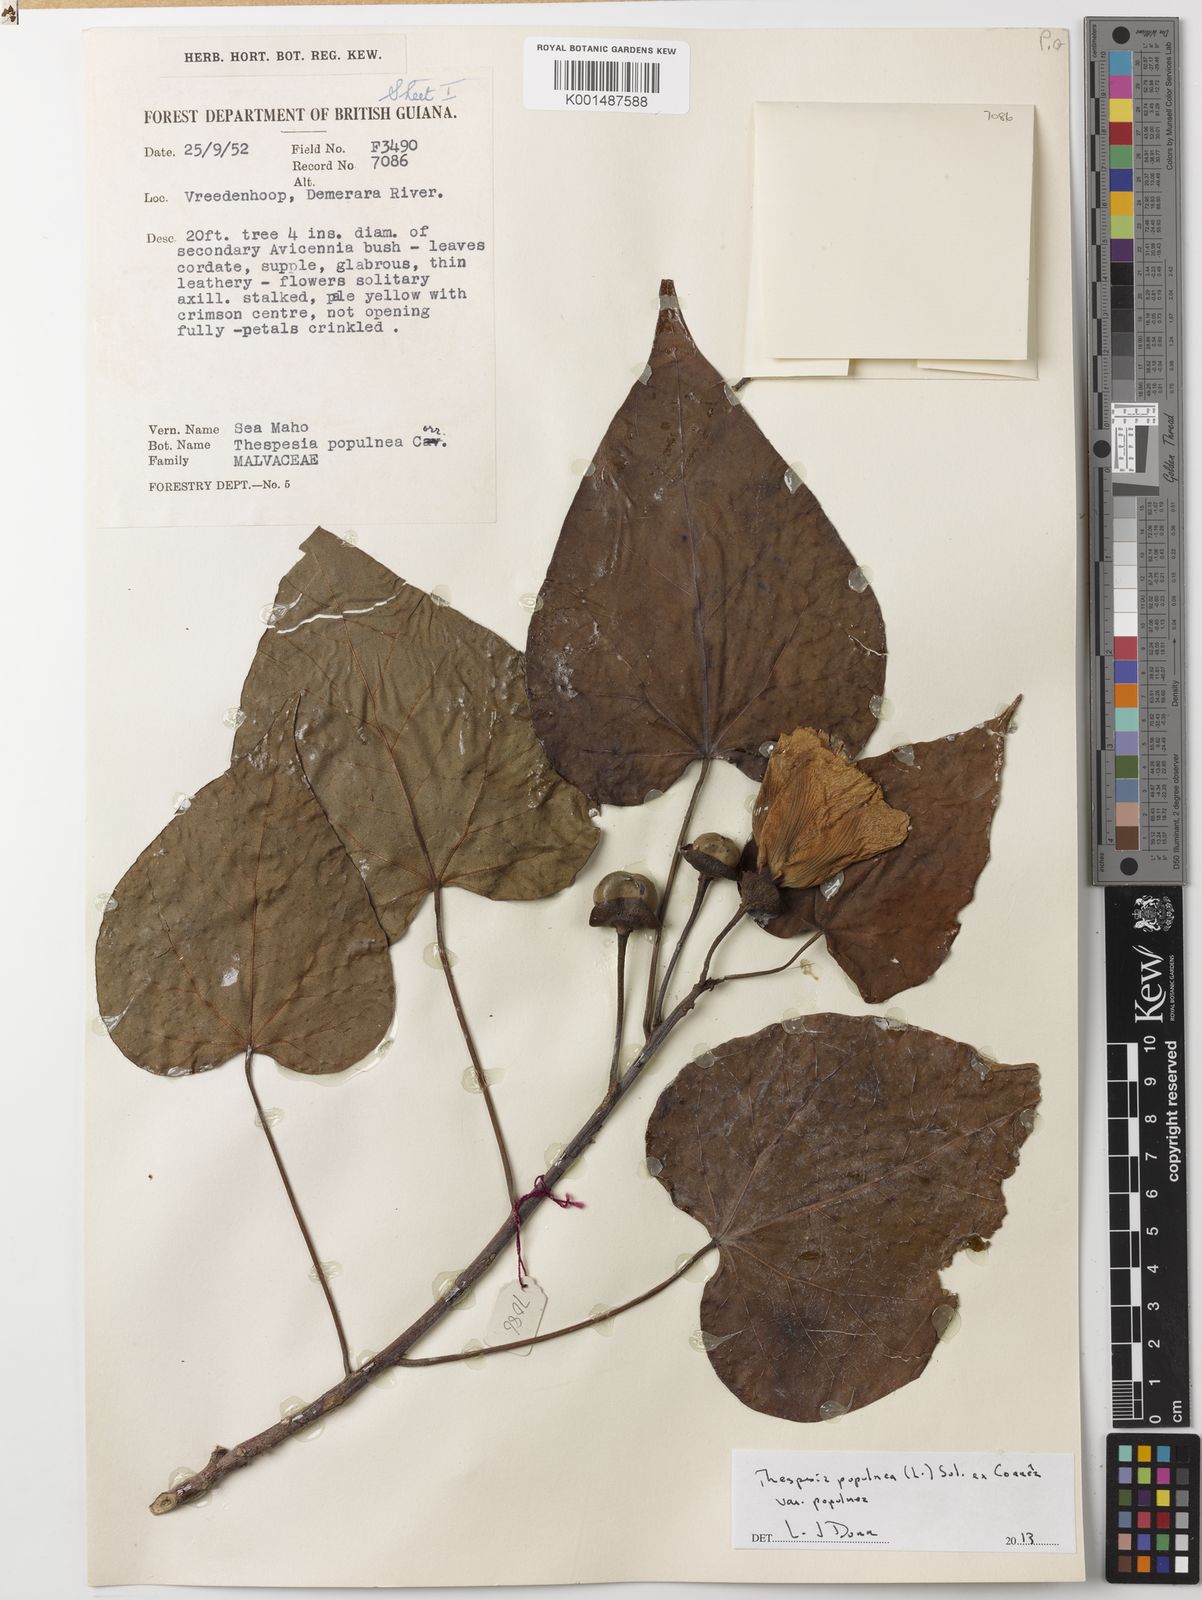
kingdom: Plantae
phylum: Tracheophyta
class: Magnoliopsida
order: Malvales
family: Malvaceae
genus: Thespesia
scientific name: Thespesia populnea
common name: Seaside mahoe
